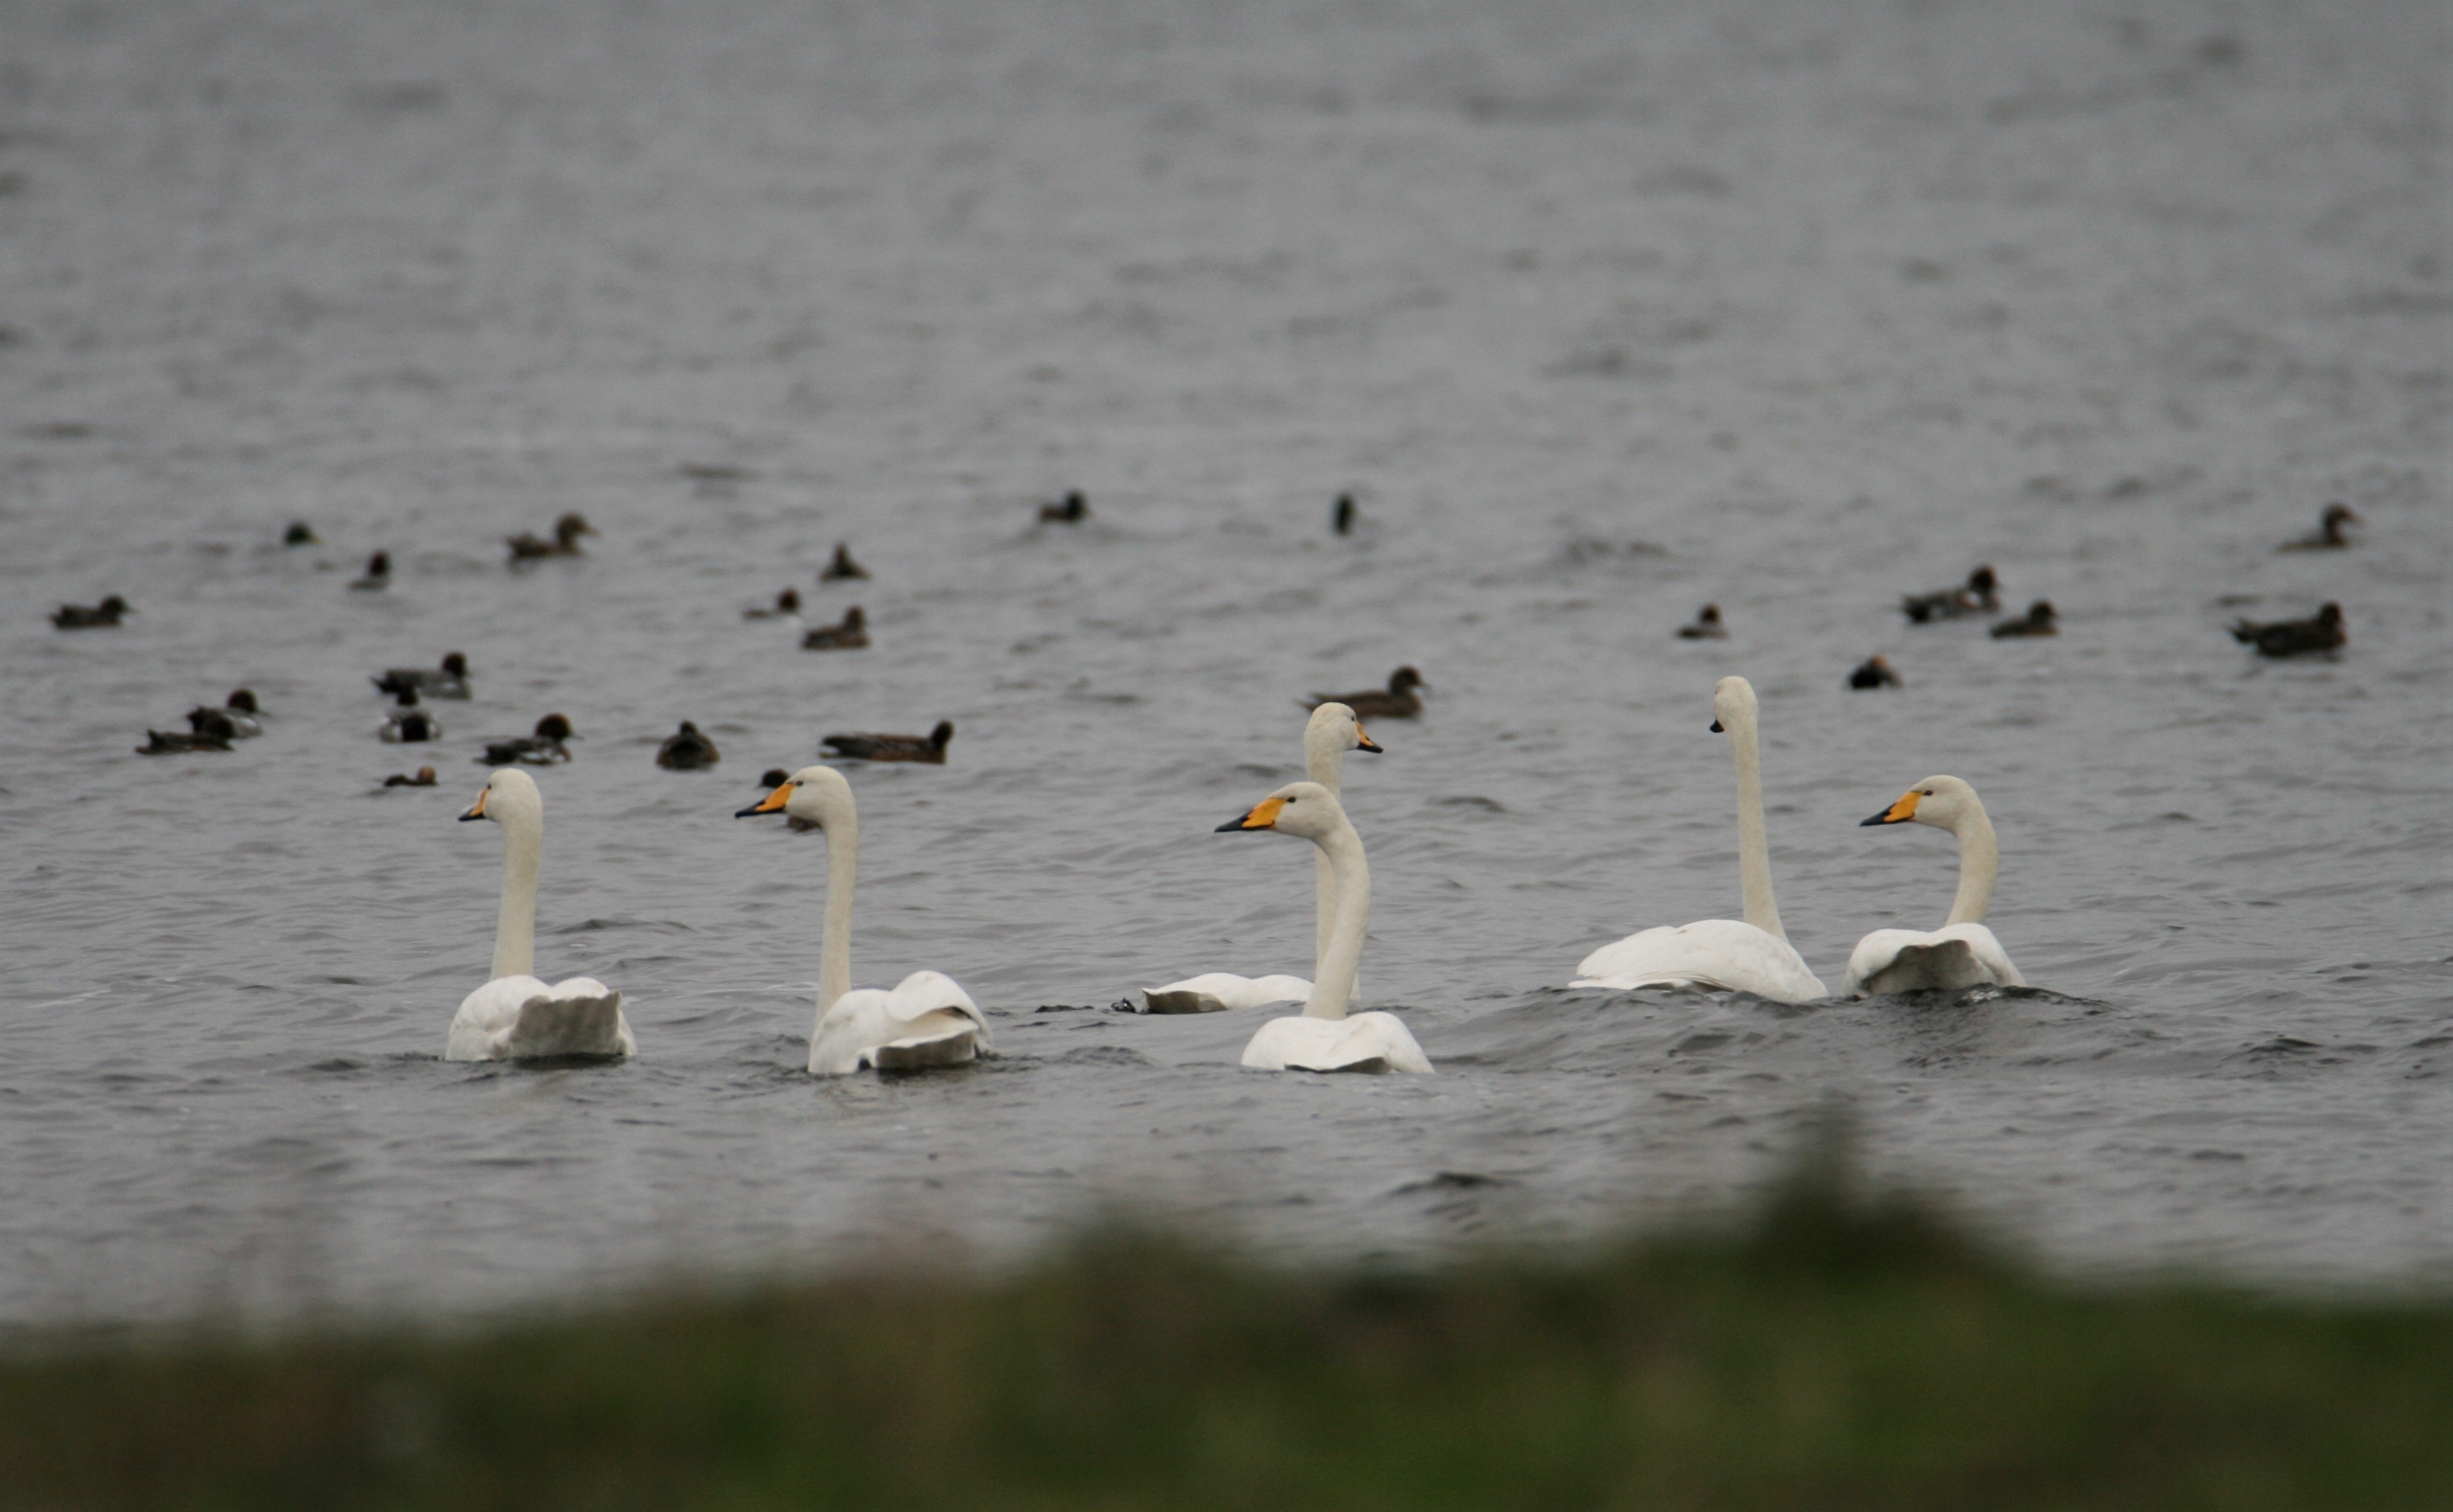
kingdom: Animalia
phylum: Chordata
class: Aves
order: Anseriformes
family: Anatidae
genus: Cygnus
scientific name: Cygnus cygnus
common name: Sangsvane
